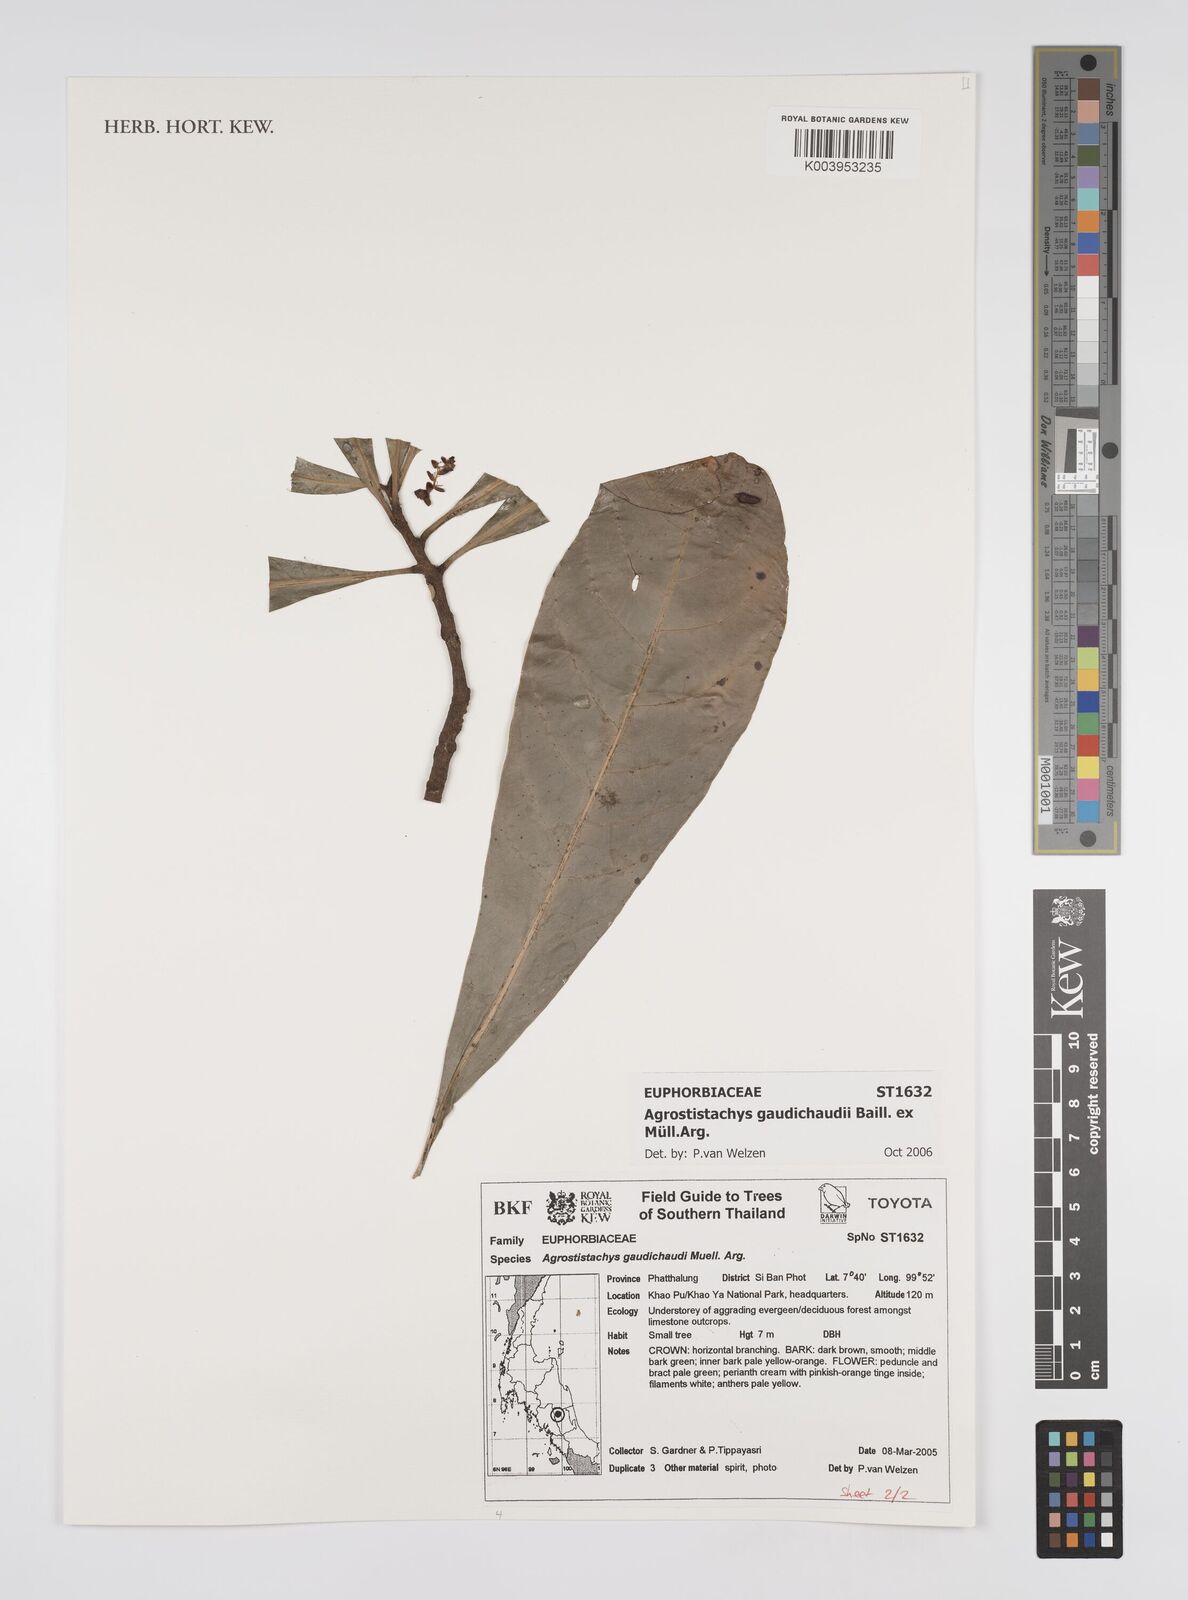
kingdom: Plantae
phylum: Tracheophyta
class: Magnoliopsida
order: Malpighiales
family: Euphorbiaceae
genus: Agrostistachys
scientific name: Agrostistachys gaudichaudii
